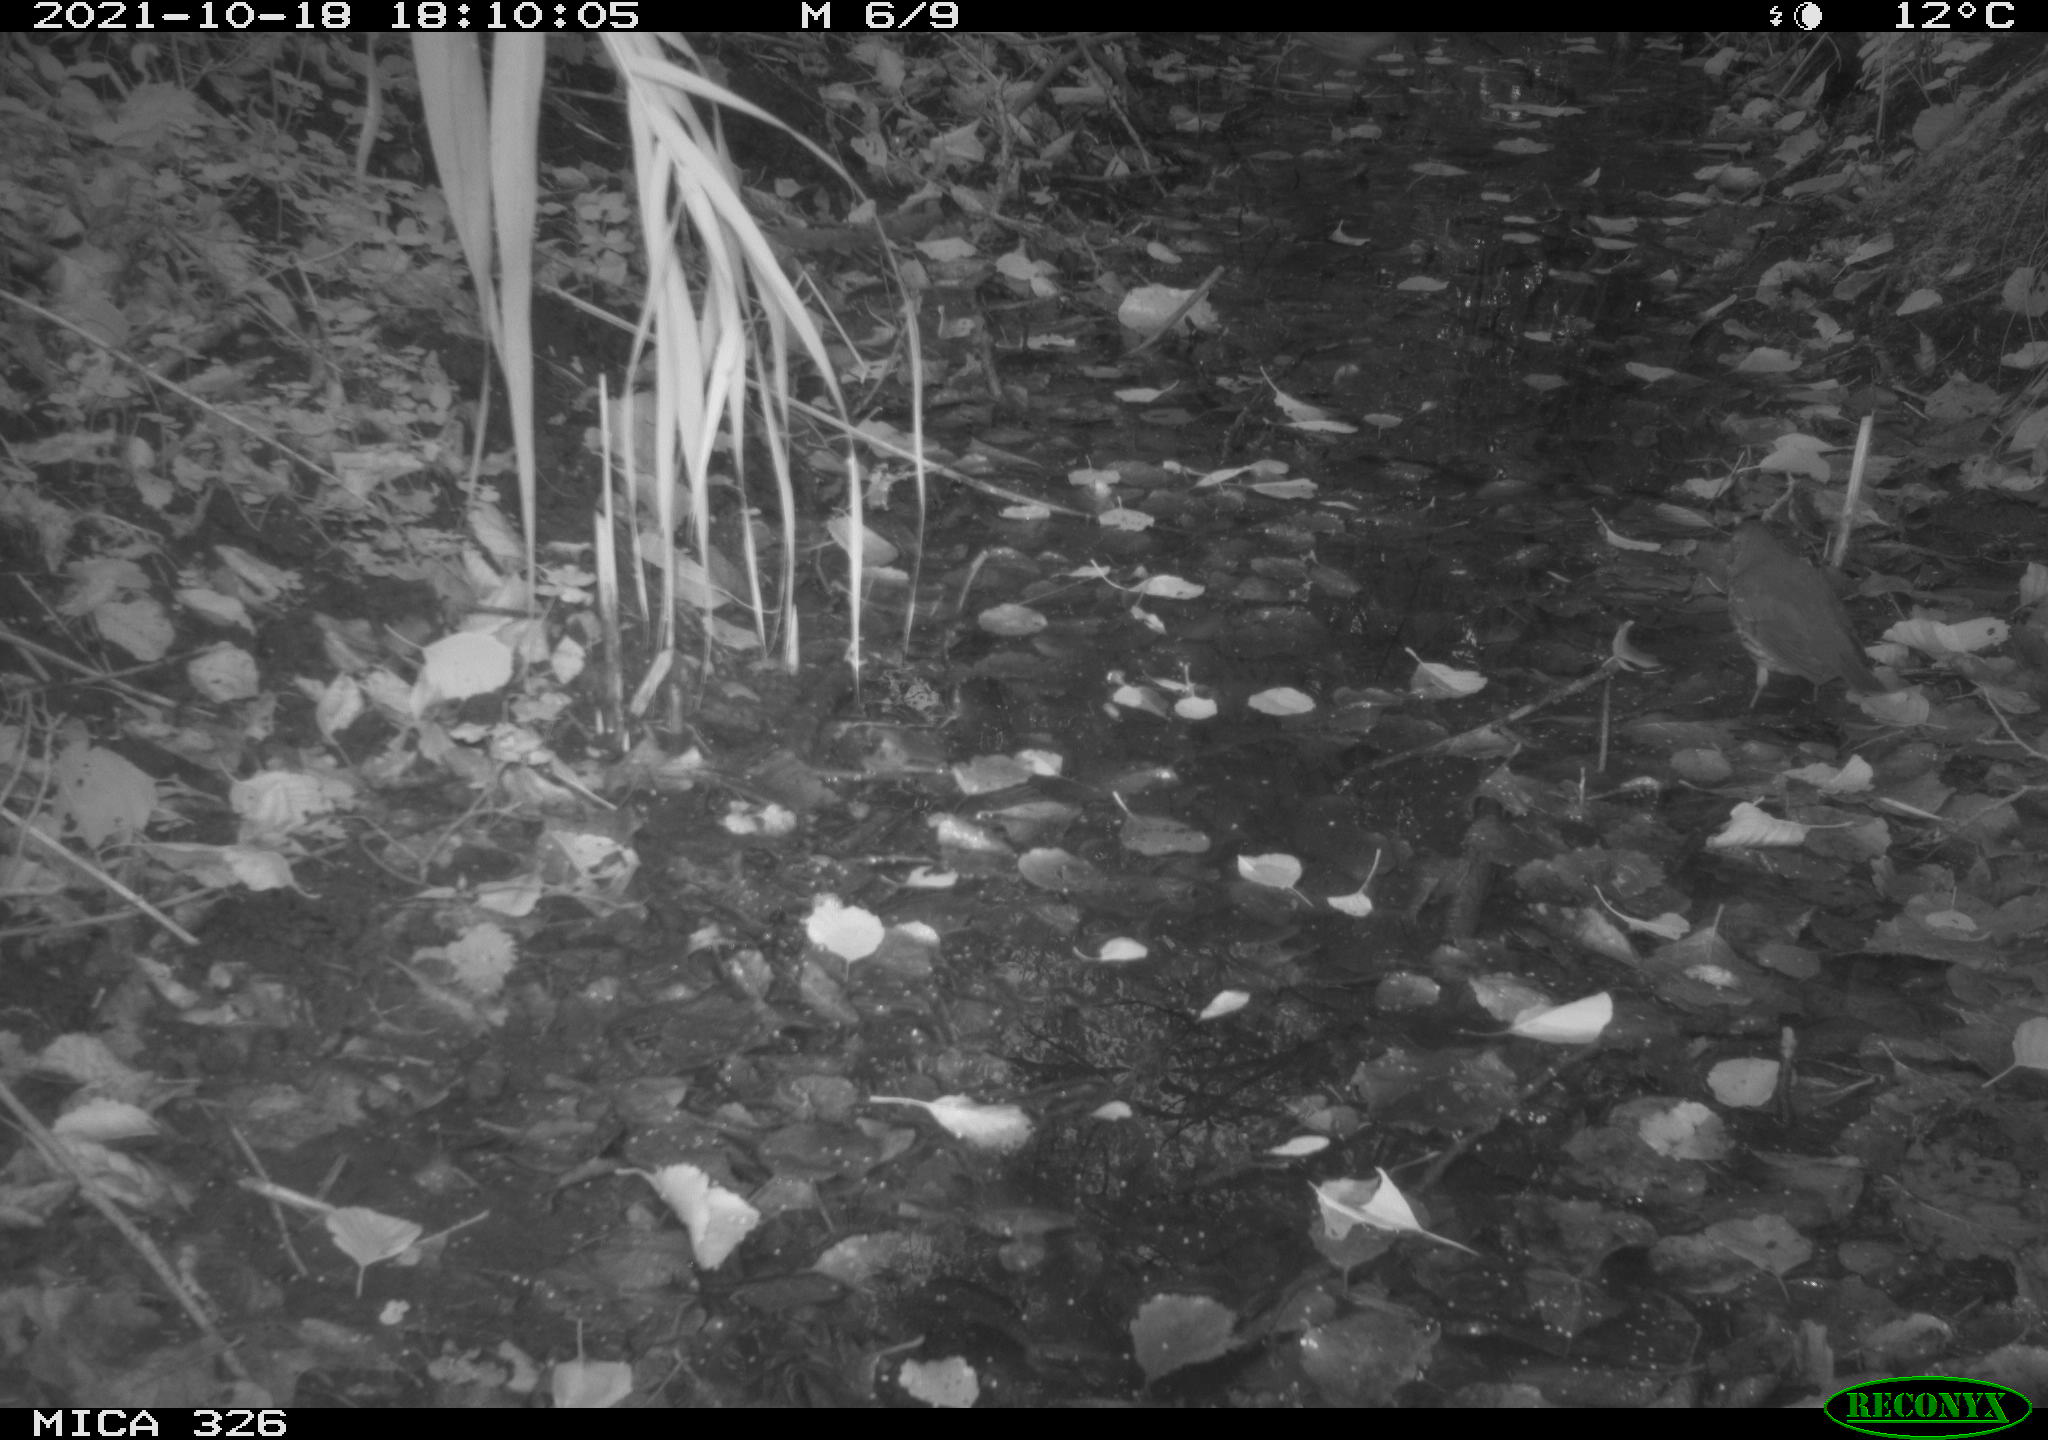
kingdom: Animalia
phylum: Chordata
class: Aves
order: Passeriformes
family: Turdidae
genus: Turdus
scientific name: Turdus merula
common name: Common blackbird
